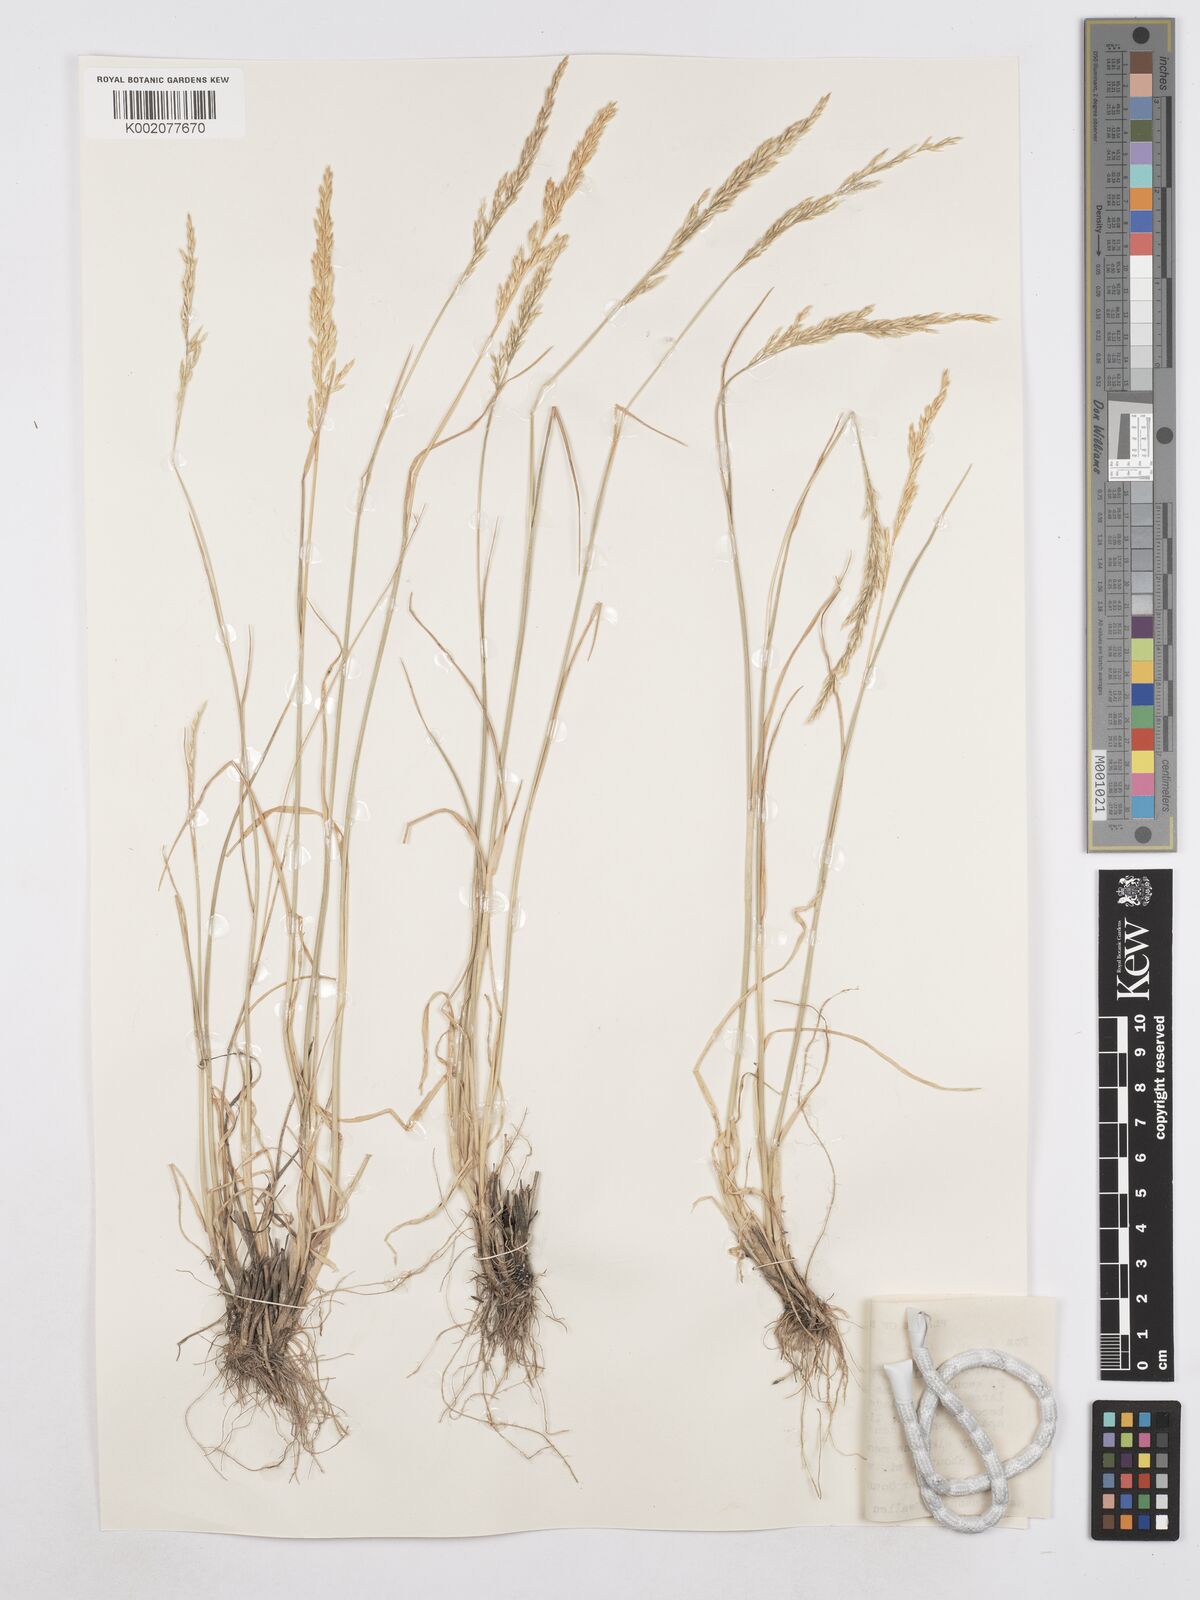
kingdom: Plantae
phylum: Tracheophyta
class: Liliopsida
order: Poales
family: Poaceae
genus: Poa
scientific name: Poa secunda
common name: Sandberg bluegrass
